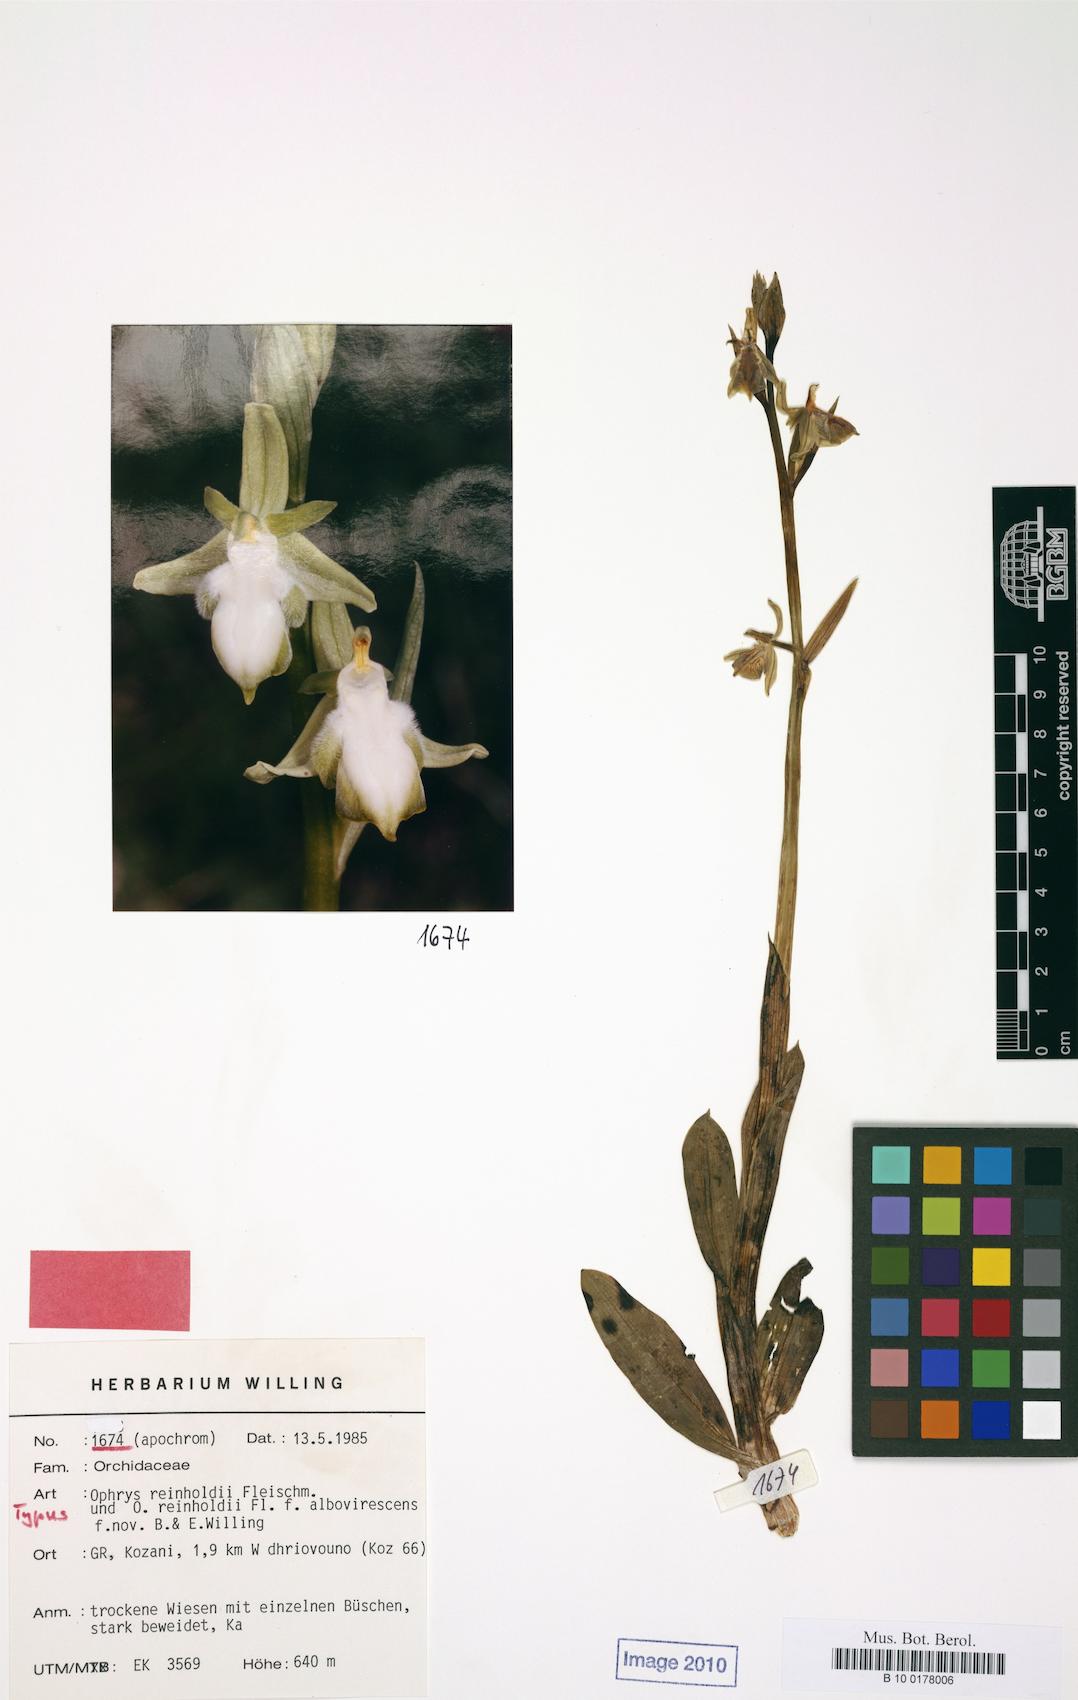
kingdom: Plantae
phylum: Tracheophyta
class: Liliopsida
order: Asparagales
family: Orchidaceae
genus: Ophrys
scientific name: Ophrys reinholdii
